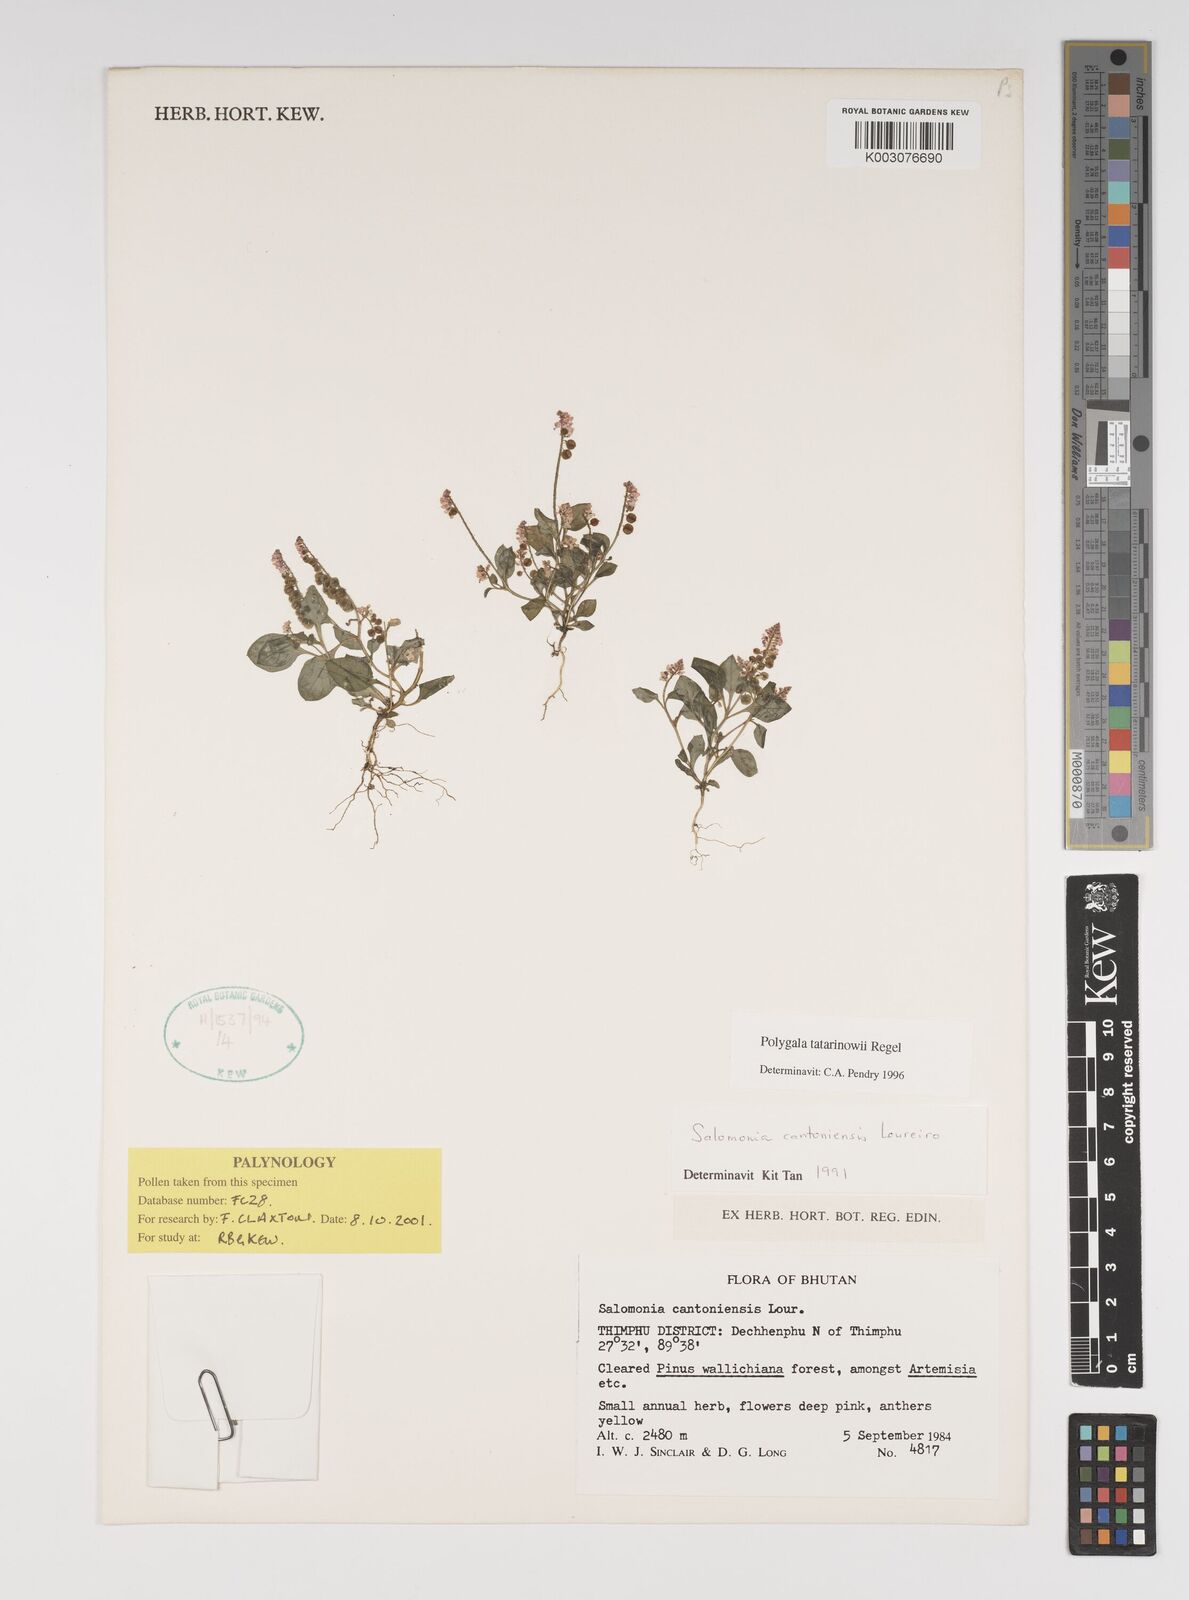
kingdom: Plantae
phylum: Tracheophyta
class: Magnoliopsida
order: Fabales
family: Polygalaceae
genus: Polygala
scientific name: Polygala tatarinowii
